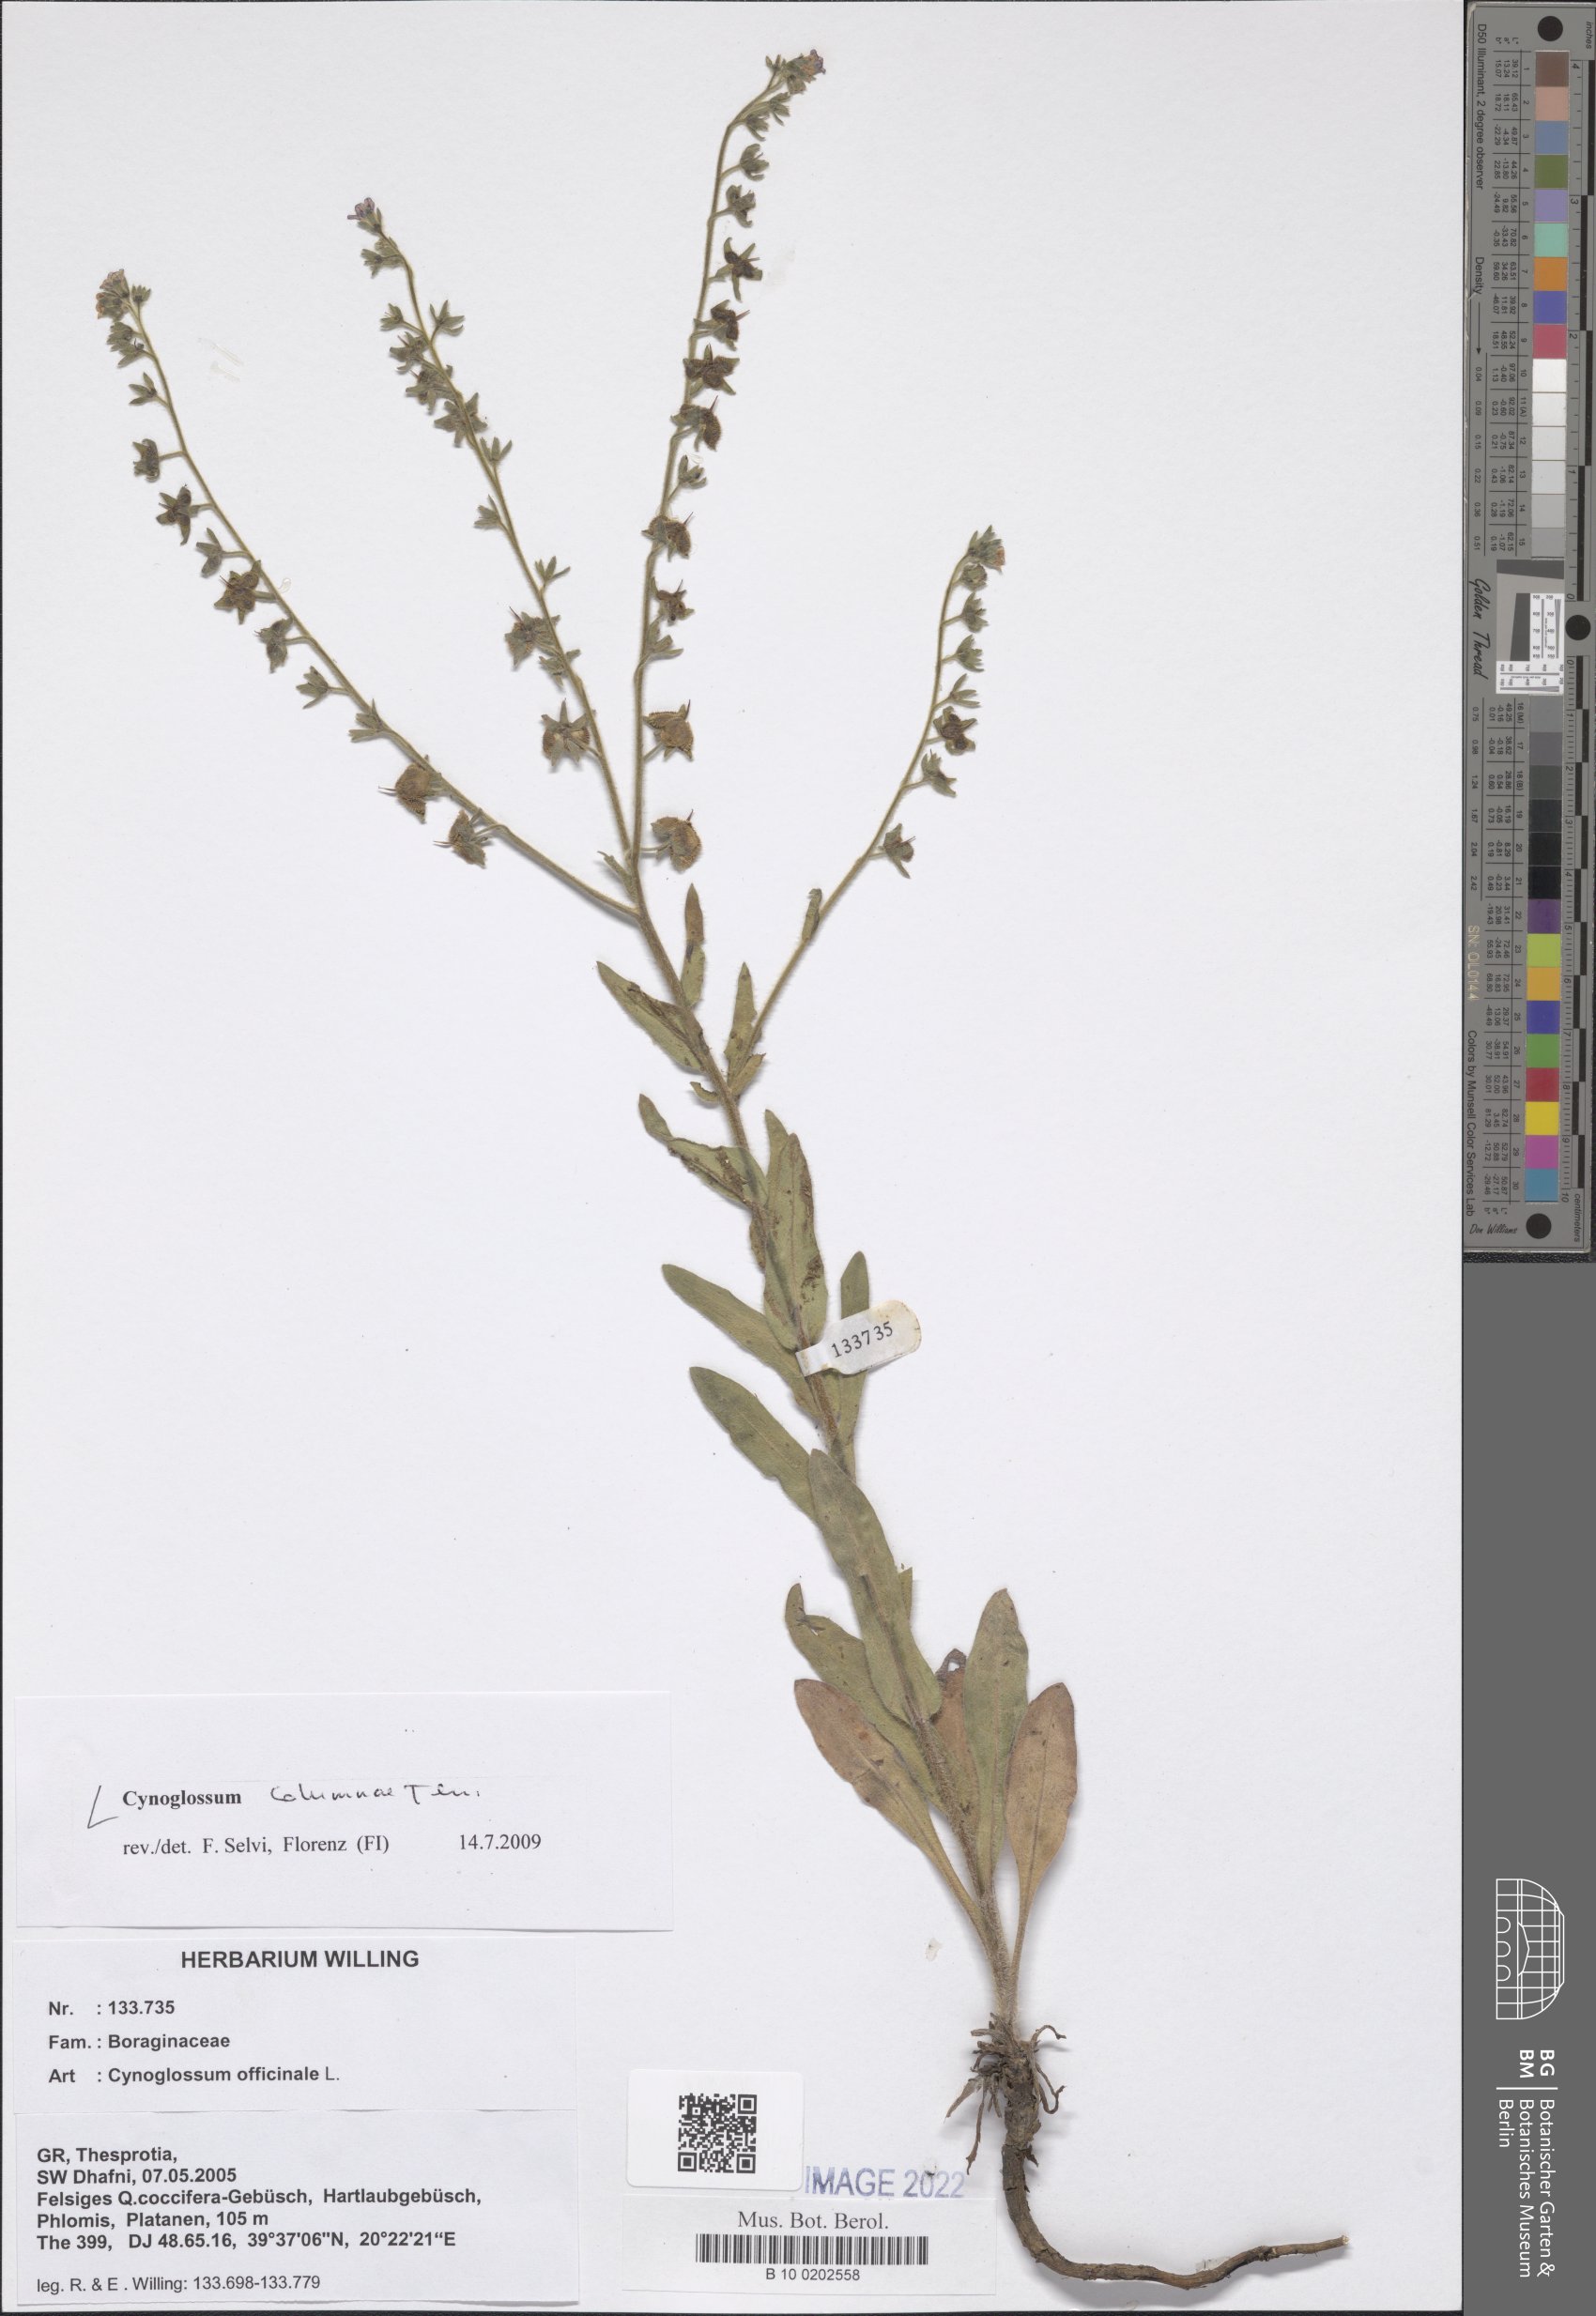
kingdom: Plantae
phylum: Tracheophyta
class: Magnoliopsida
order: Boraginales
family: Boraginaceae
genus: Rindera
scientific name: Rindera columnae
